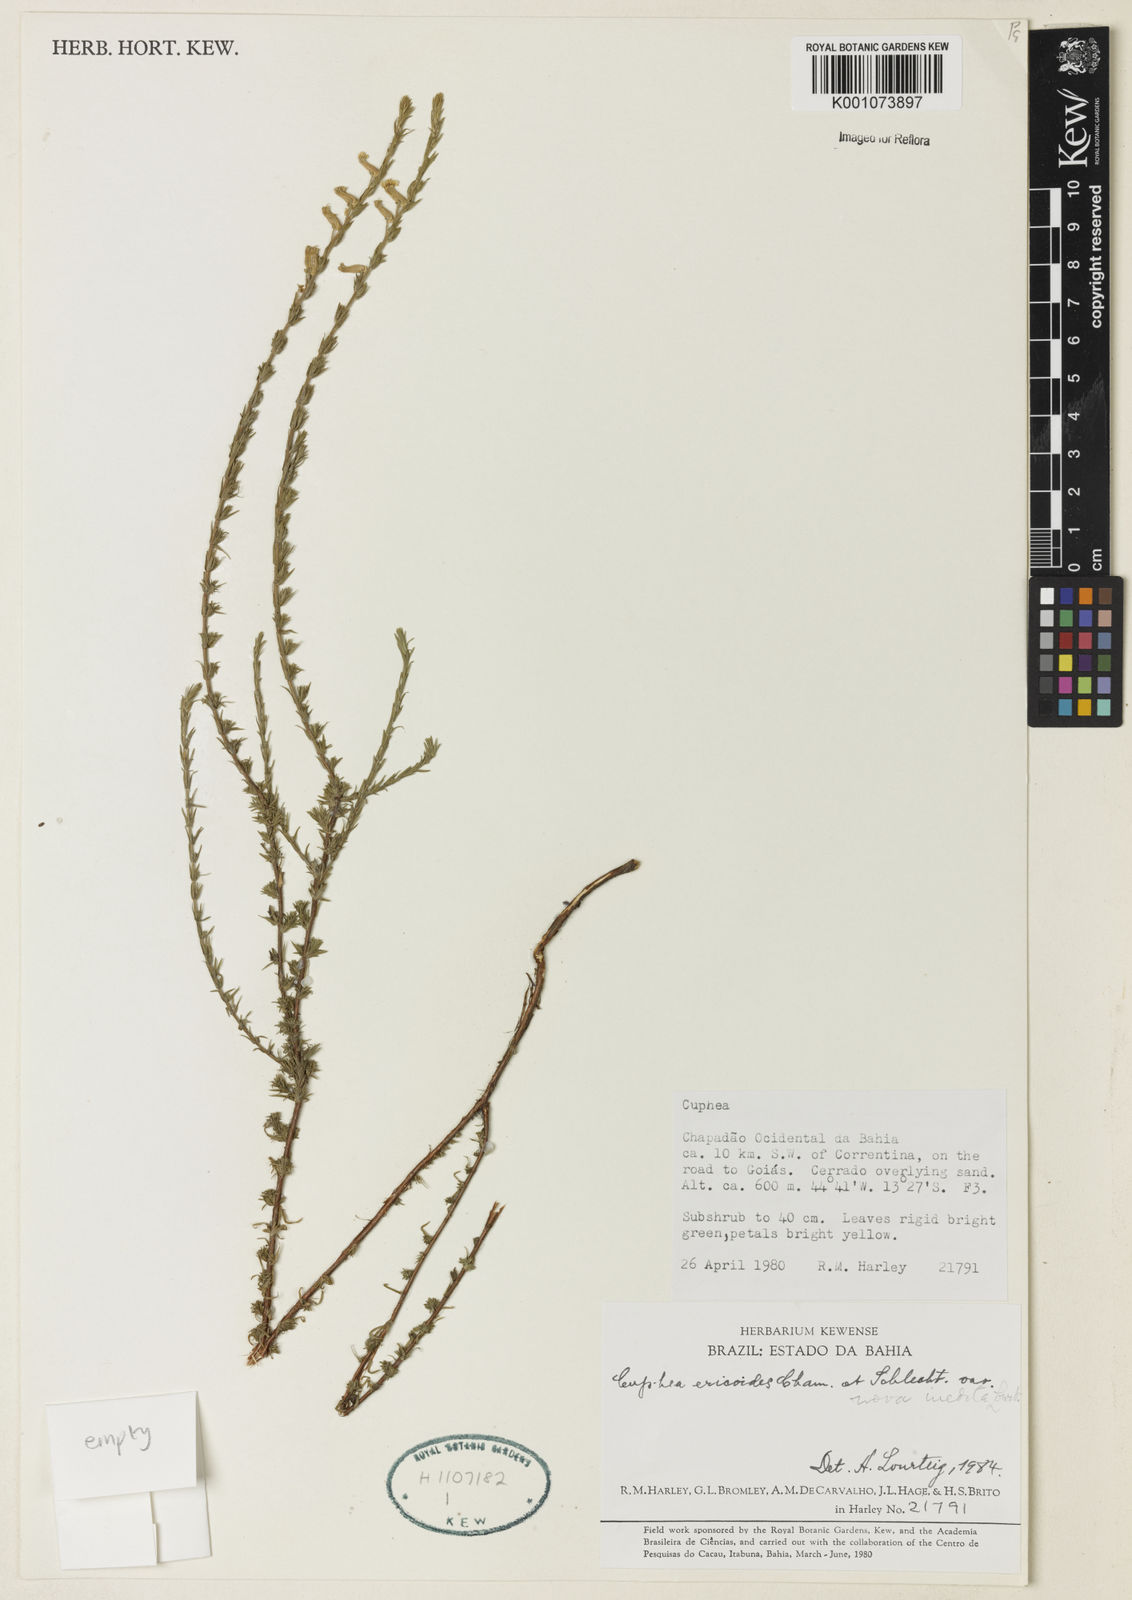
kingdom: Plantae
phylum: Tracheophyta
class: Magnoliopsida
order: Myrtales
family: Lythraceae
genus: Cuphea
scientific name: Cuphea ericoides
